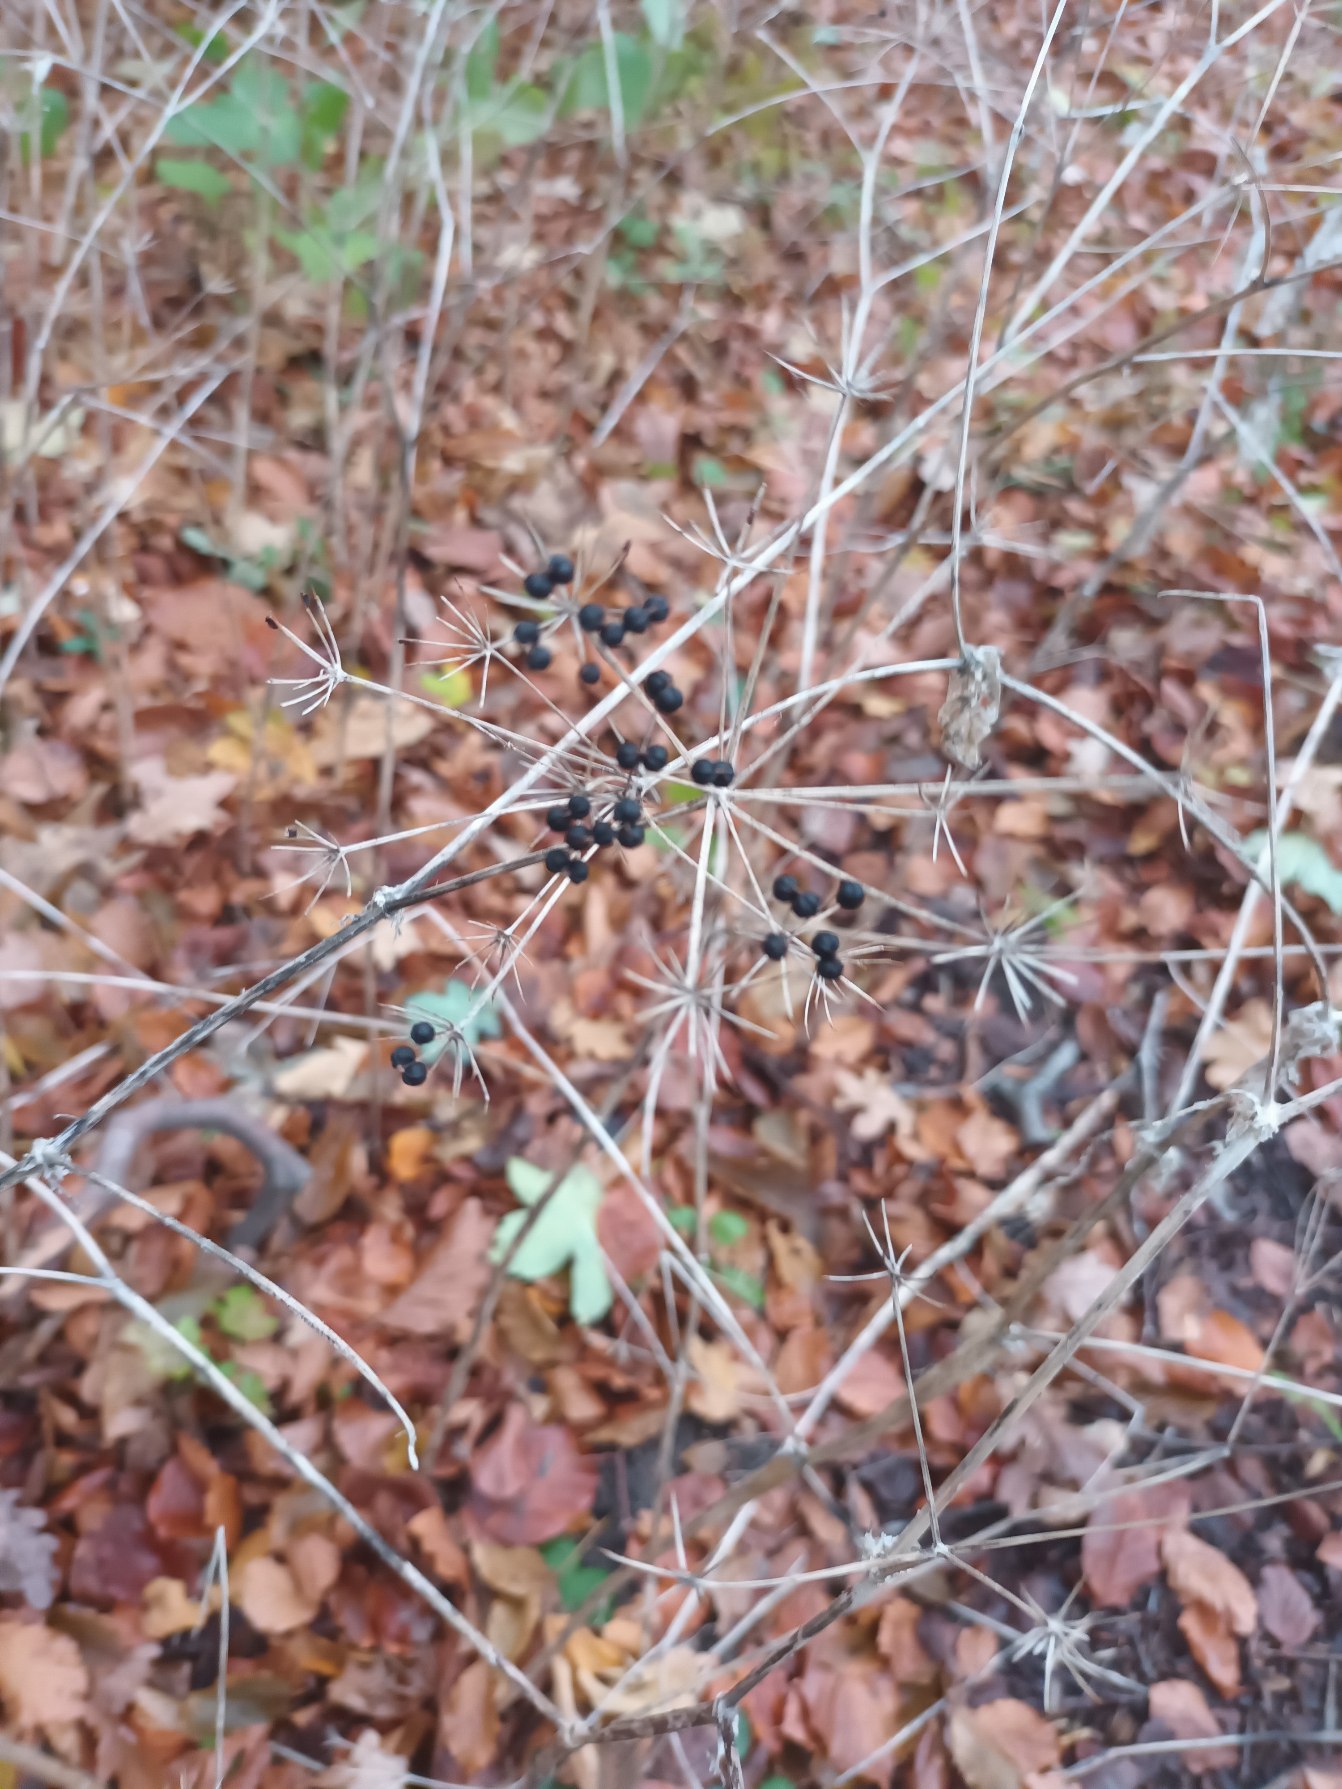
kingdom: Plantae
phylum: Tracheophyta
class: Magnoliopsida
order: Apiales
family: Apiaceae
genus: Smyrnium
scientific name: Smyrnium perfoliatum
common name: Lundgylden
